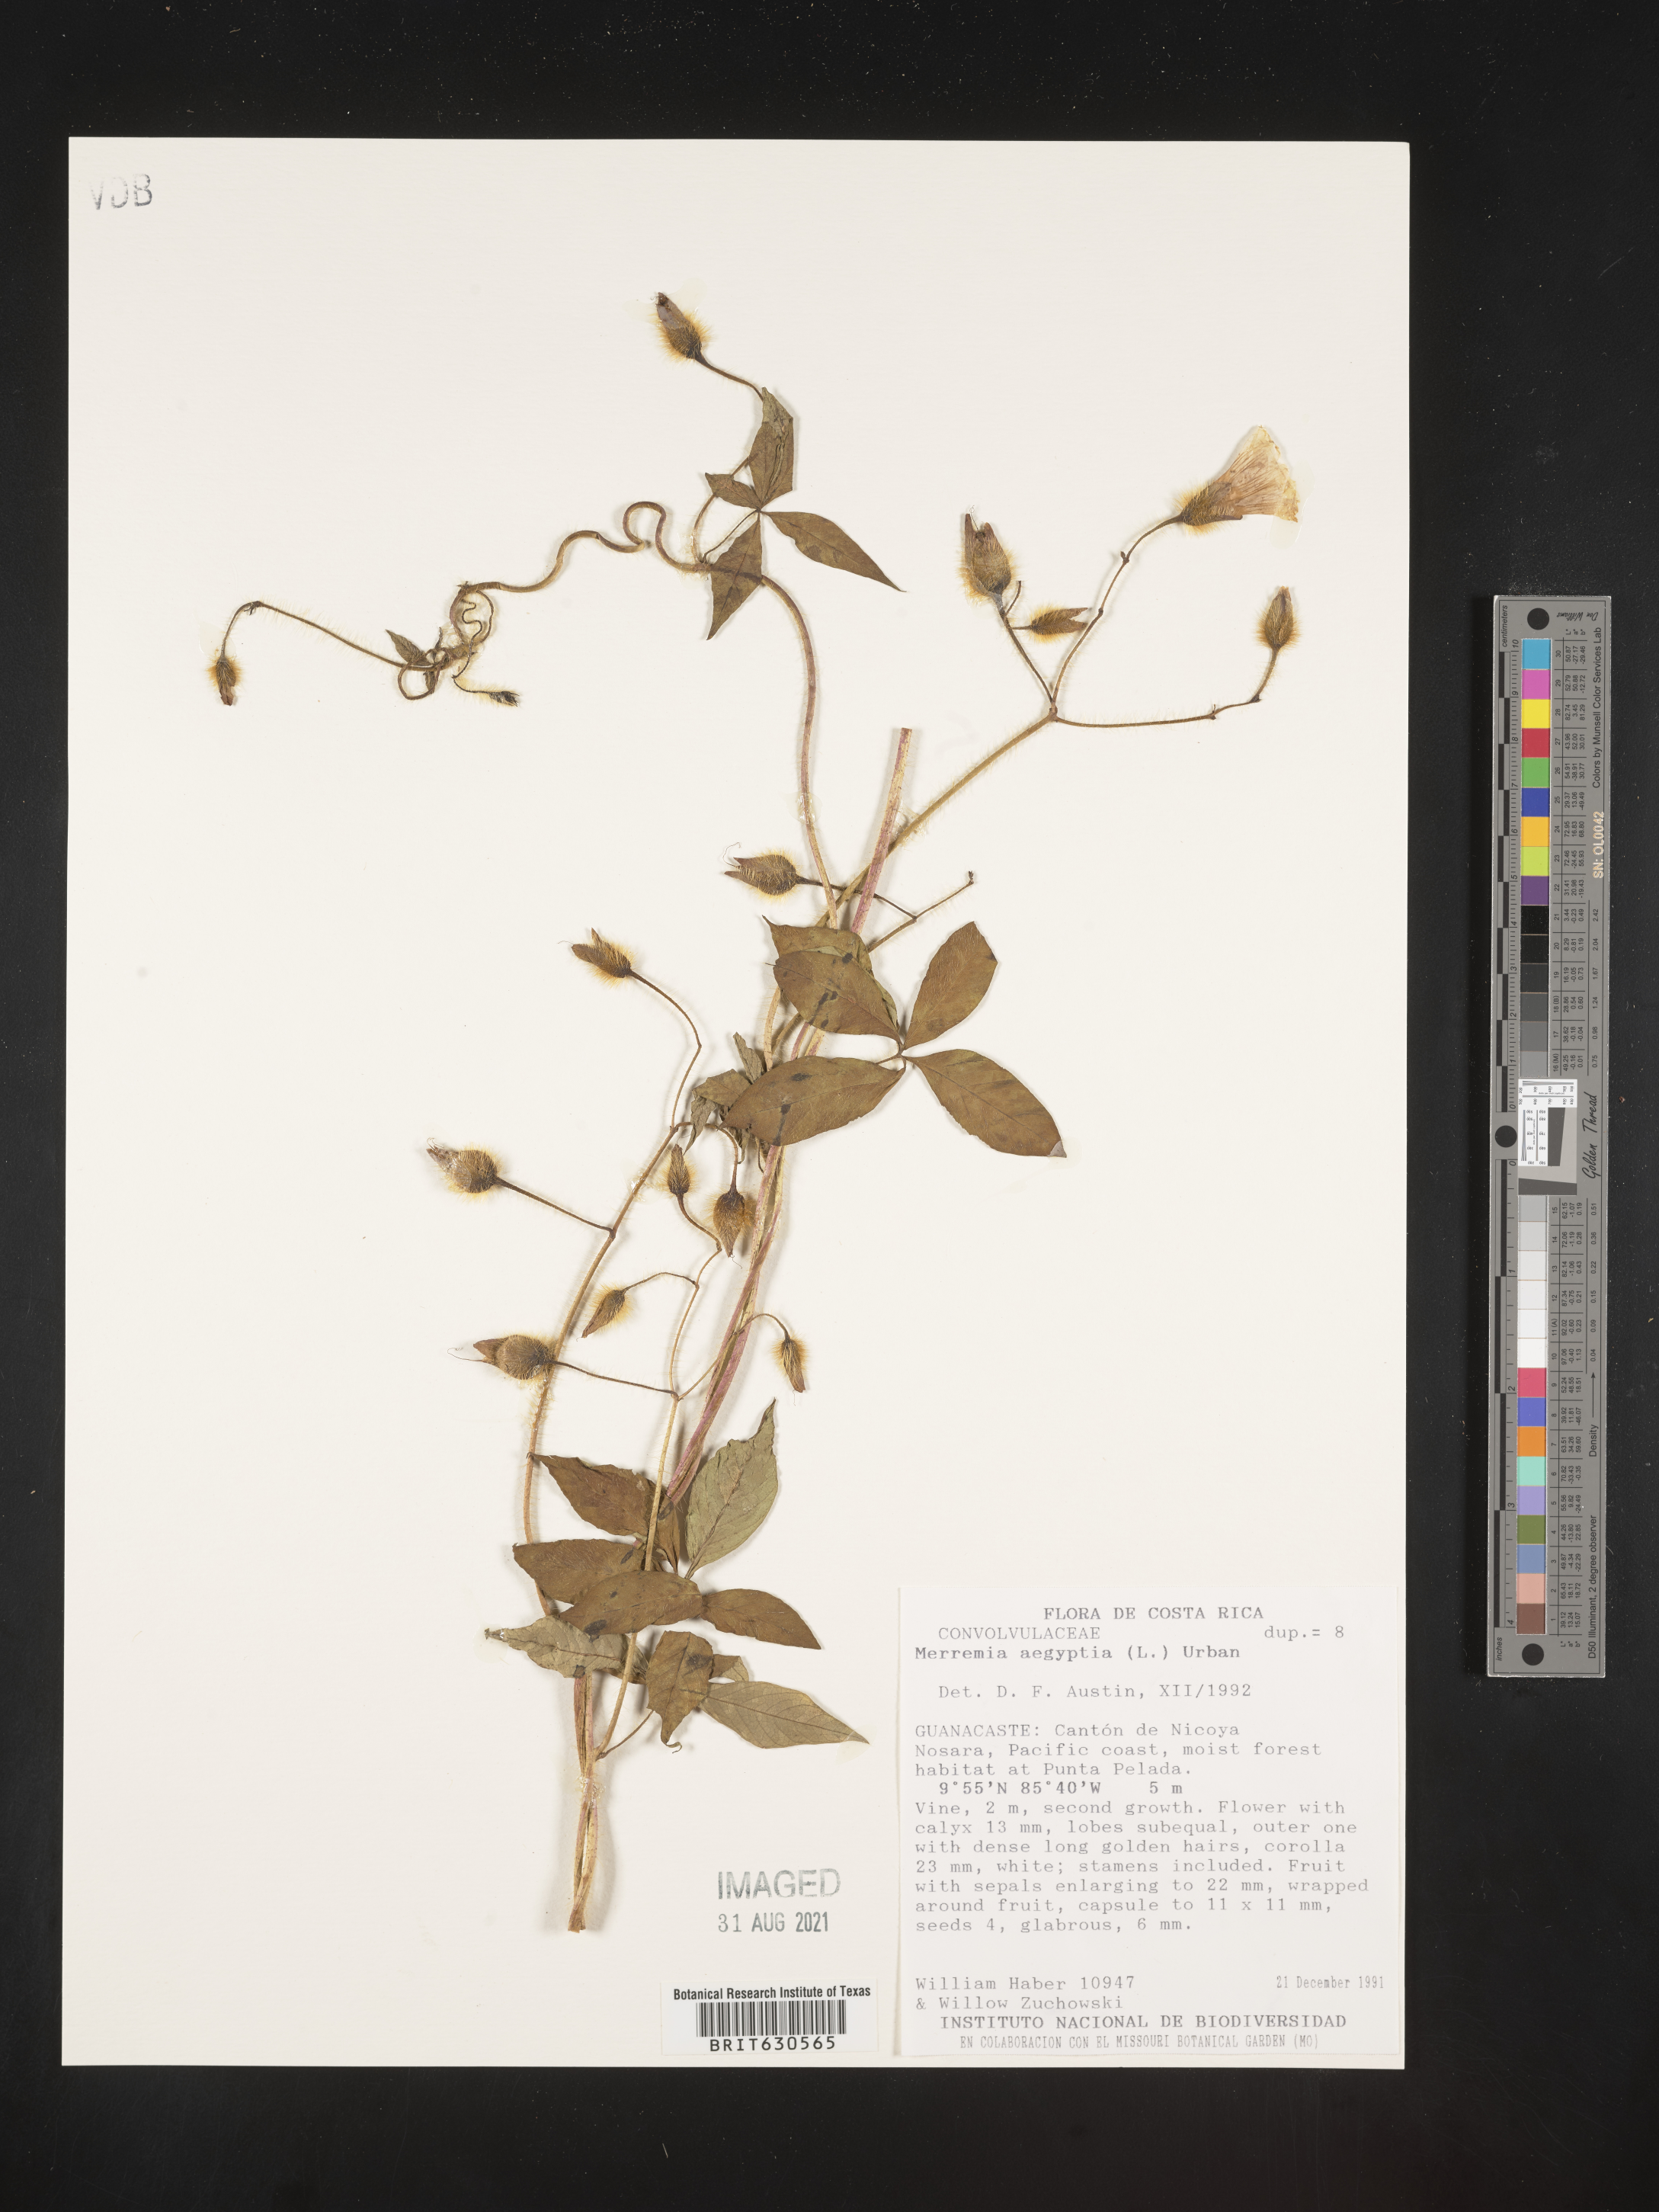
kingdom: Plantae
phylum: Tracheophyta
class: Magnoliopsida
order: Solanales
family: Convolvulaceae
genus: Distimake
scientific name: Distimake aegyptius
